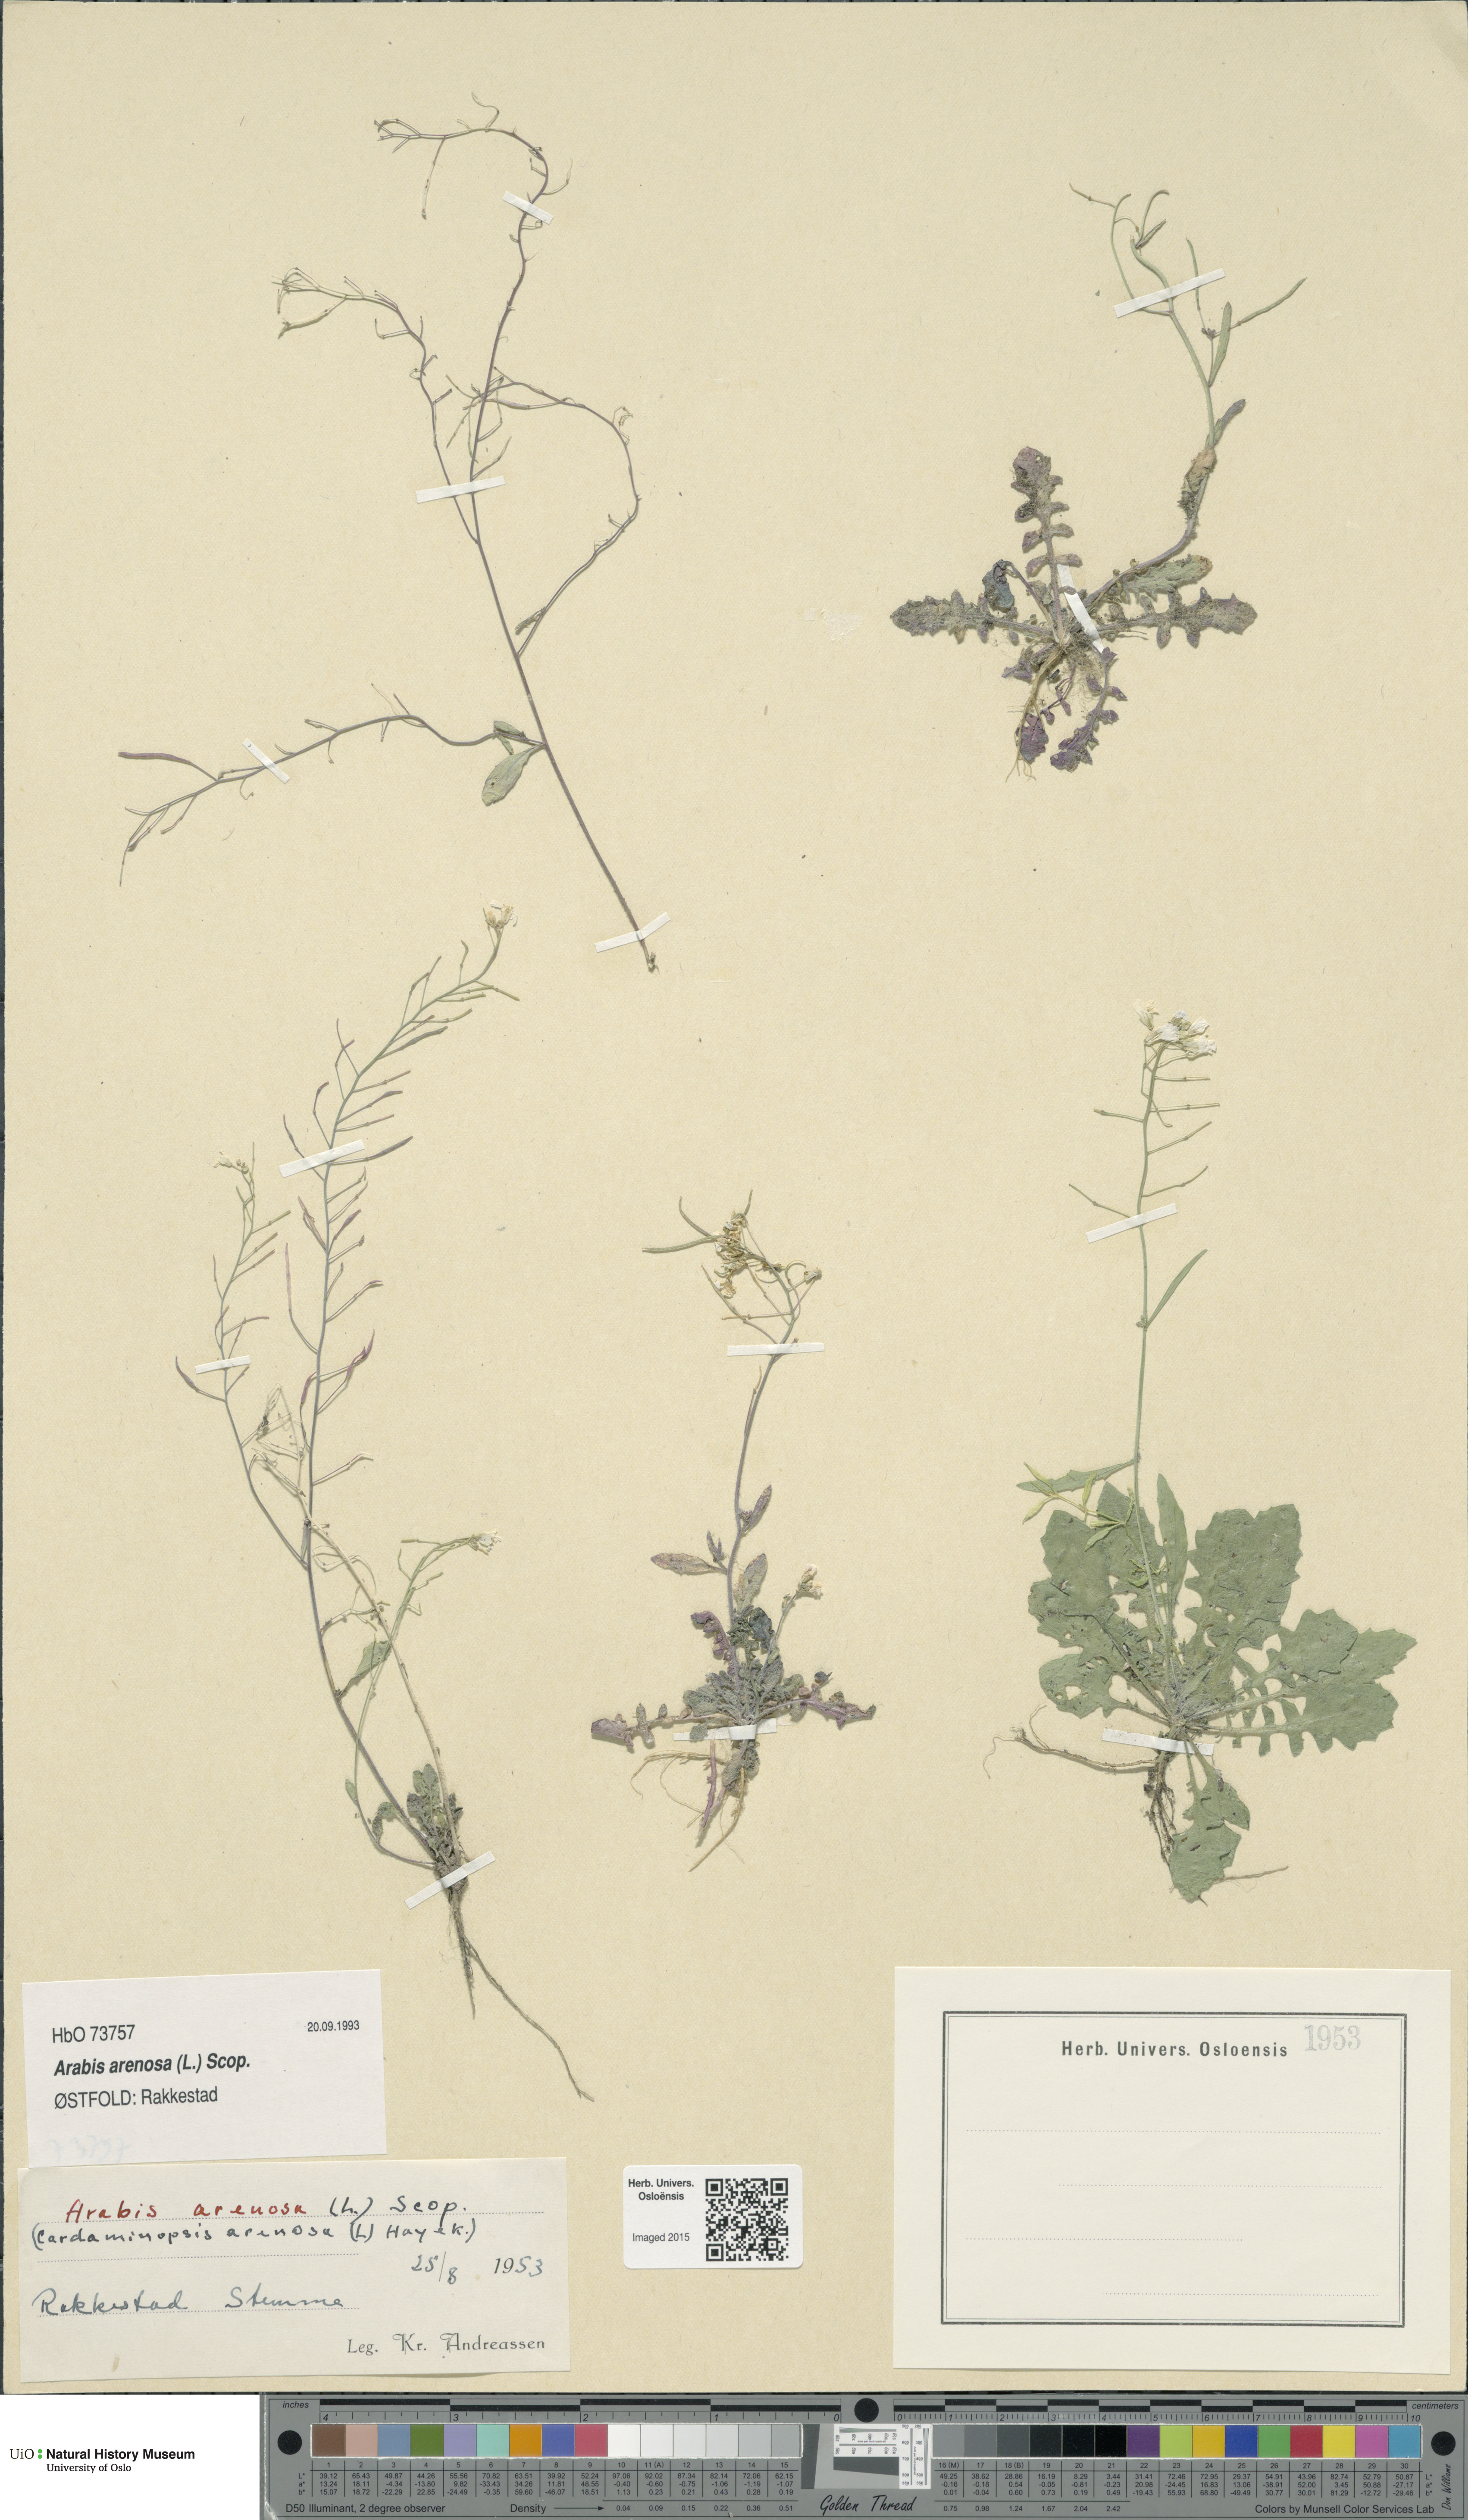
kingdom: Plantae
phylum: Tracheophyta
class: Magnoliopsida
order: Brassicales
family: Brassicaceae
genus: Arabidopsis
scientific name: Arabidopsis arenosa
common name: Sand rock-cress
